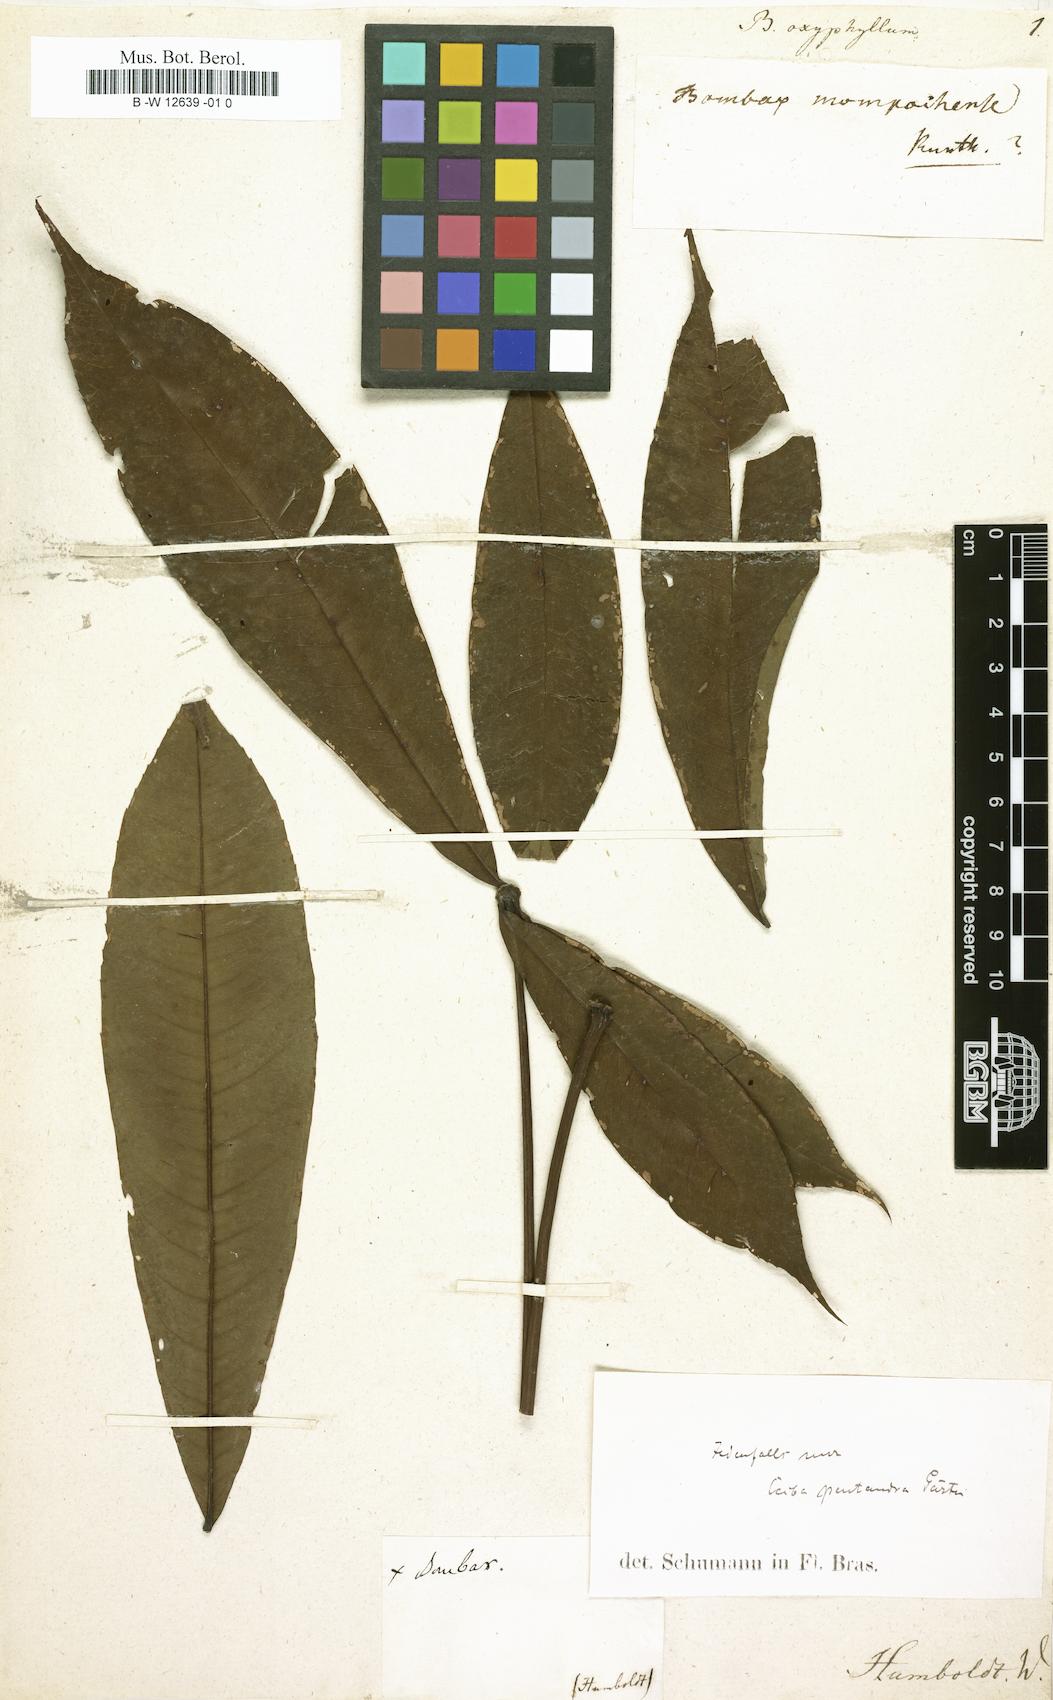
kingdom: Plantae
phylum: Tracheophyta
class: Magnoliopsida
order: Malvales
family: Malvaceae
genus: Bombax
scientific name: Bombax
